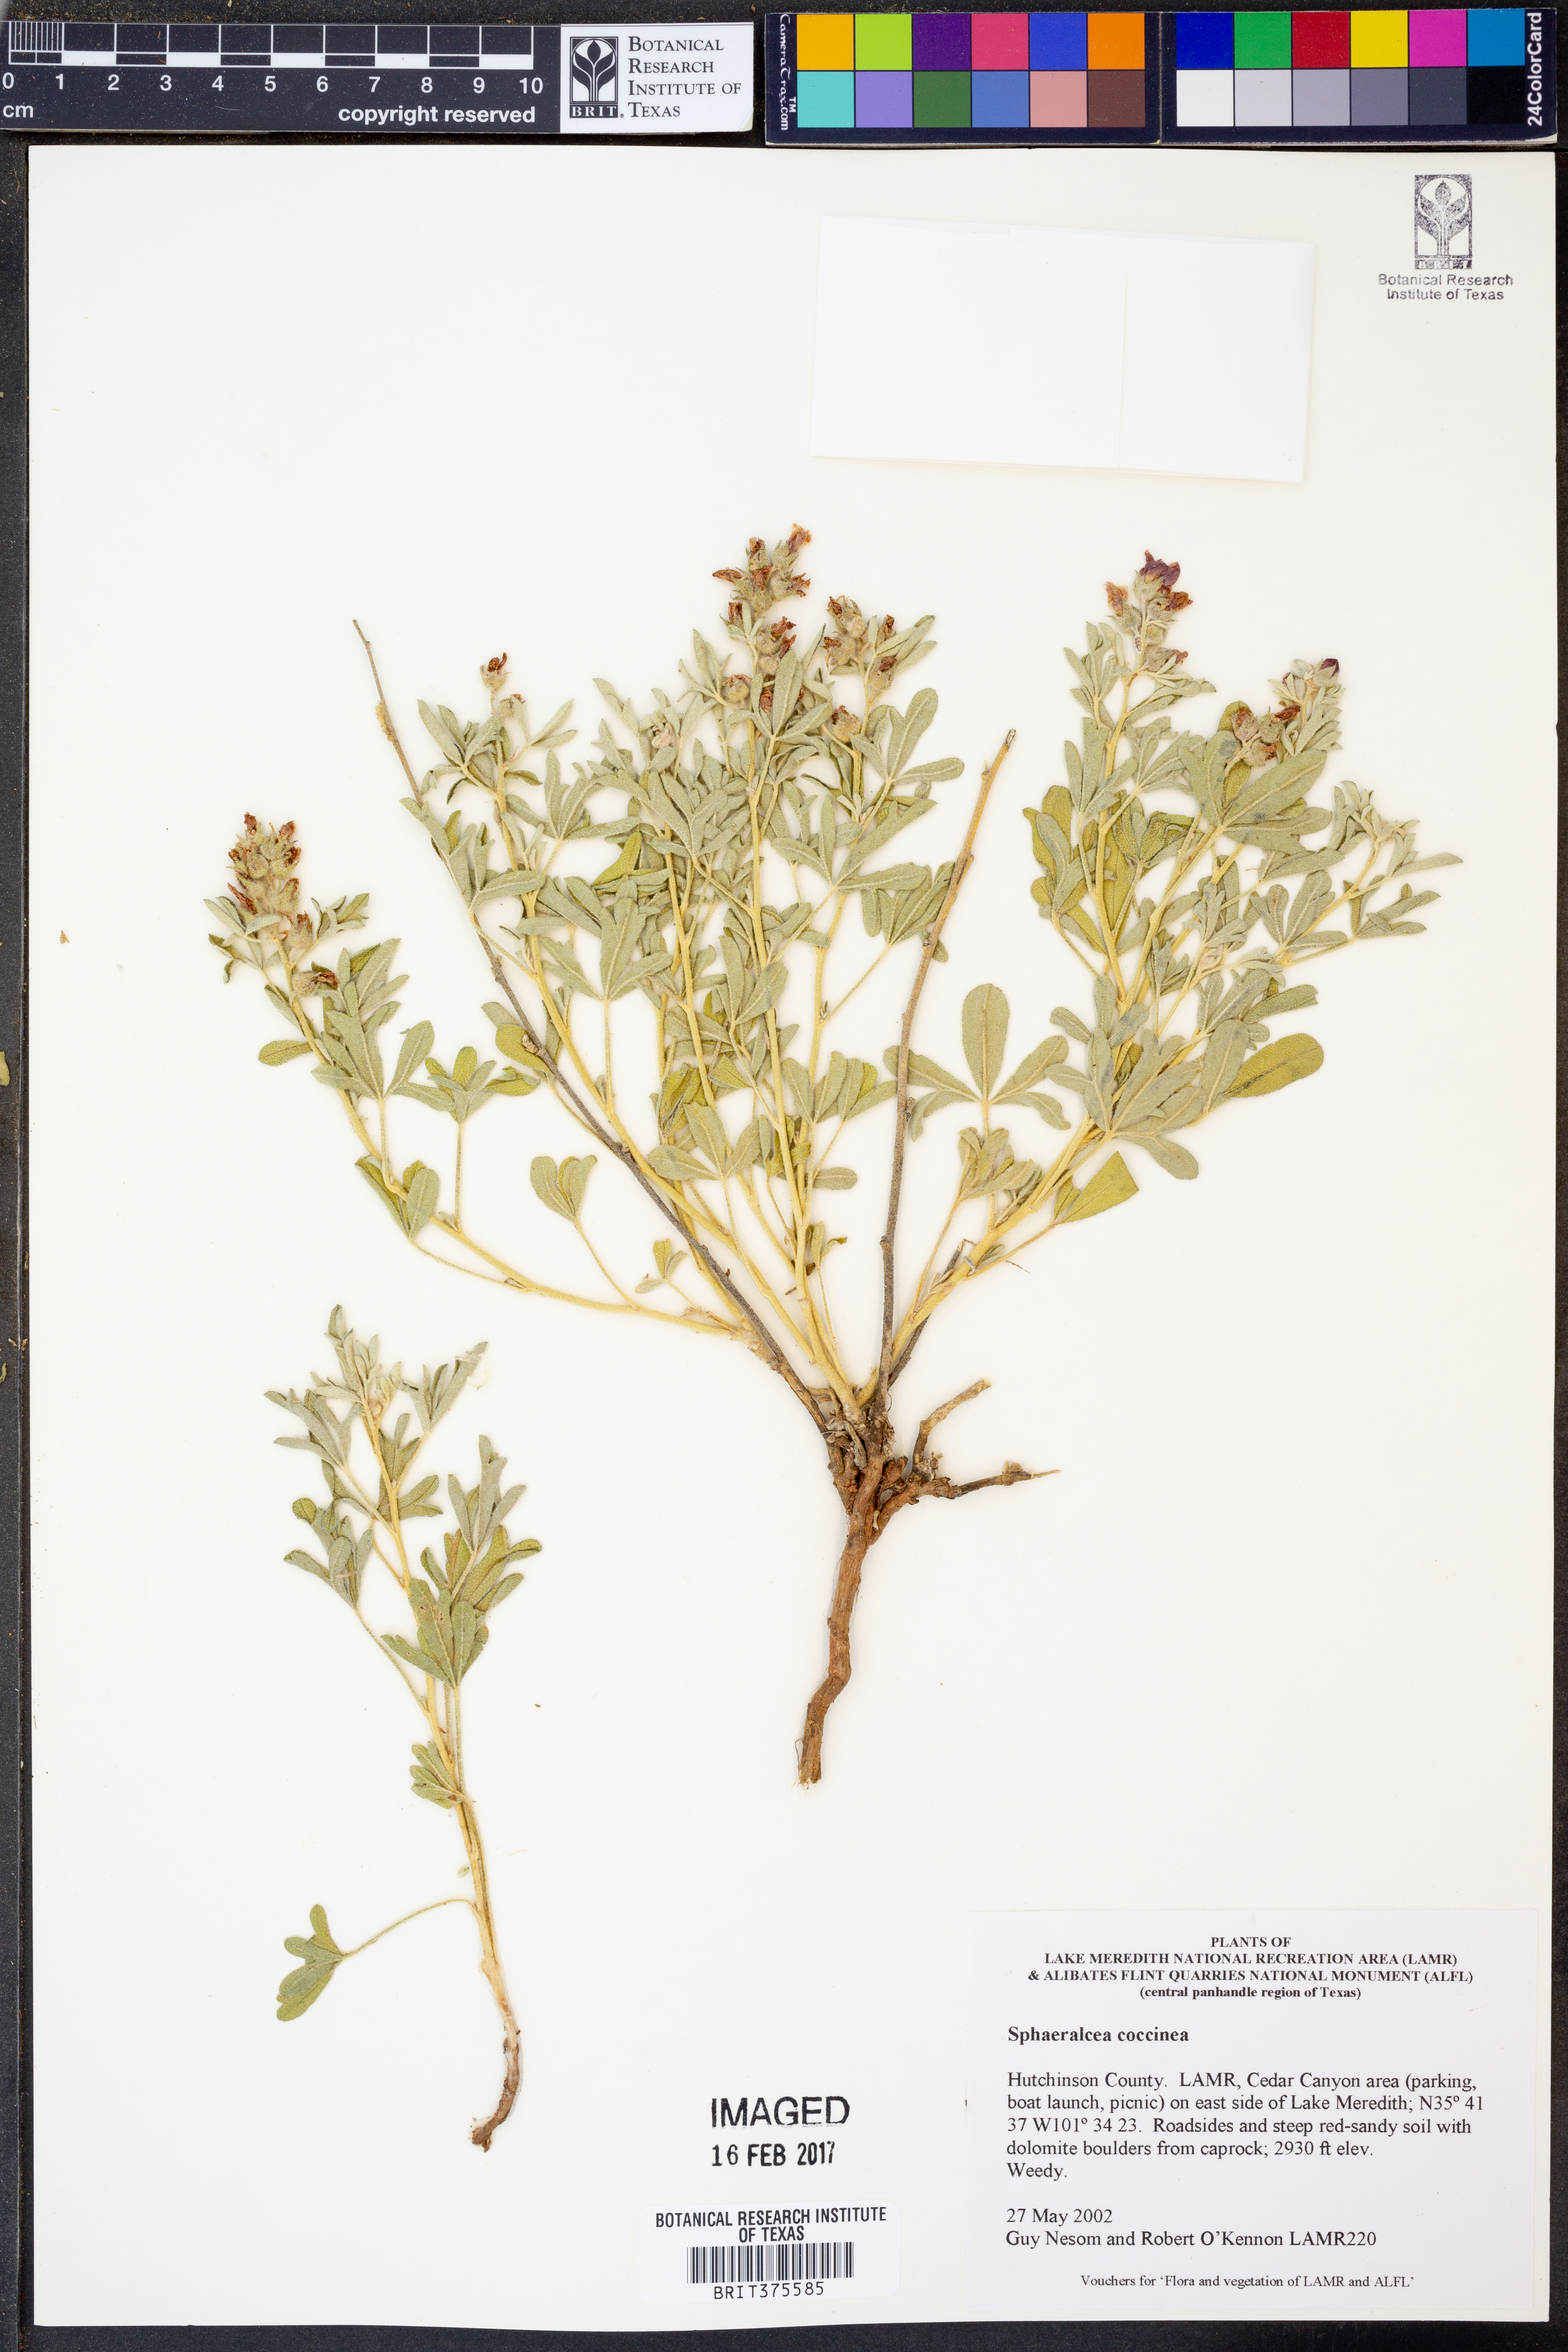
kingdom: Plantae
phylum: Tracheophyta
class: Magnoliopsida
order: Malvales
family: Malvaceae
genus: Sphaeralcea
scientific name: Sphaeralcea coccinea
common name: Moss-rose
